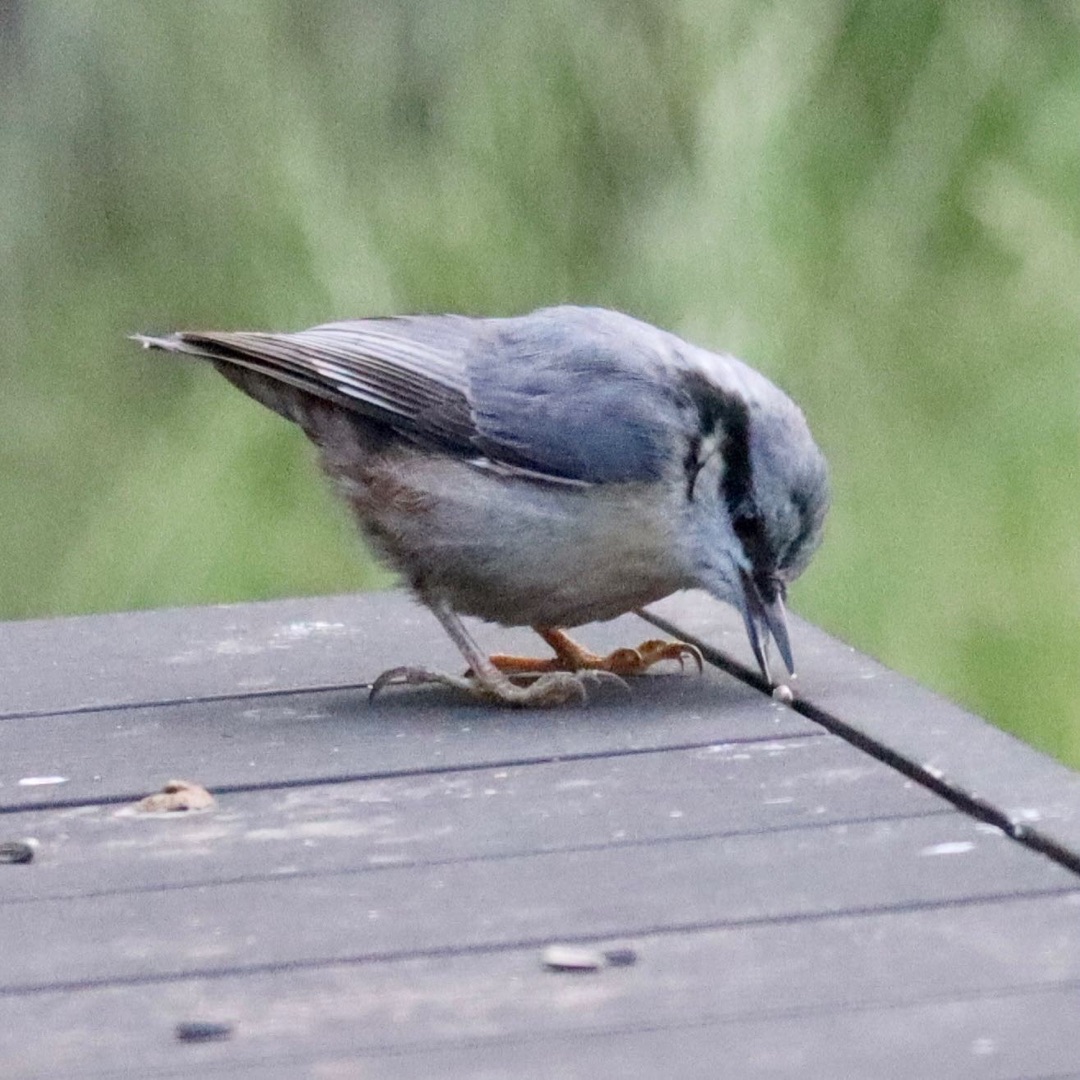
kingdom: Animalia
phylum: Chordata
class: Aves
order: Passeriformes
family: Sittidae
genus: Sitta
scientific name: Sitta europaea
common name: Spætmejse
